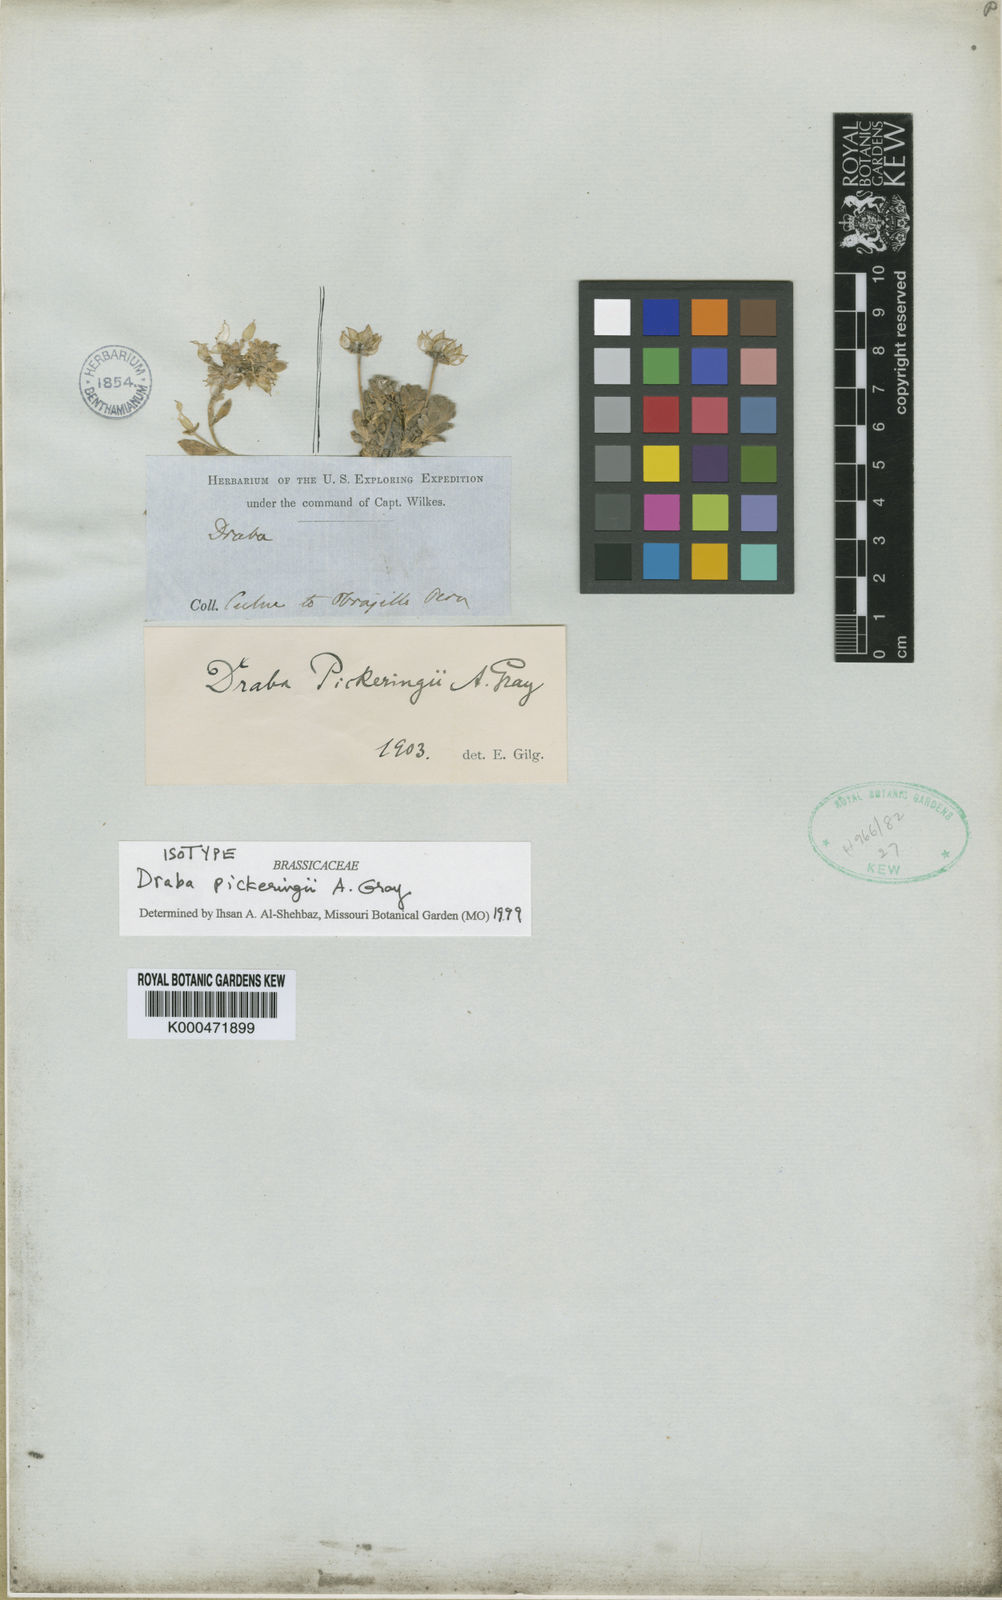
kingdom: Plantae
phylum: Tracheophyta
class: Magnoliopsida
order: Brassicales
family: Brassicaceae
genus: Draba
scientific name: Draba pickeringii
